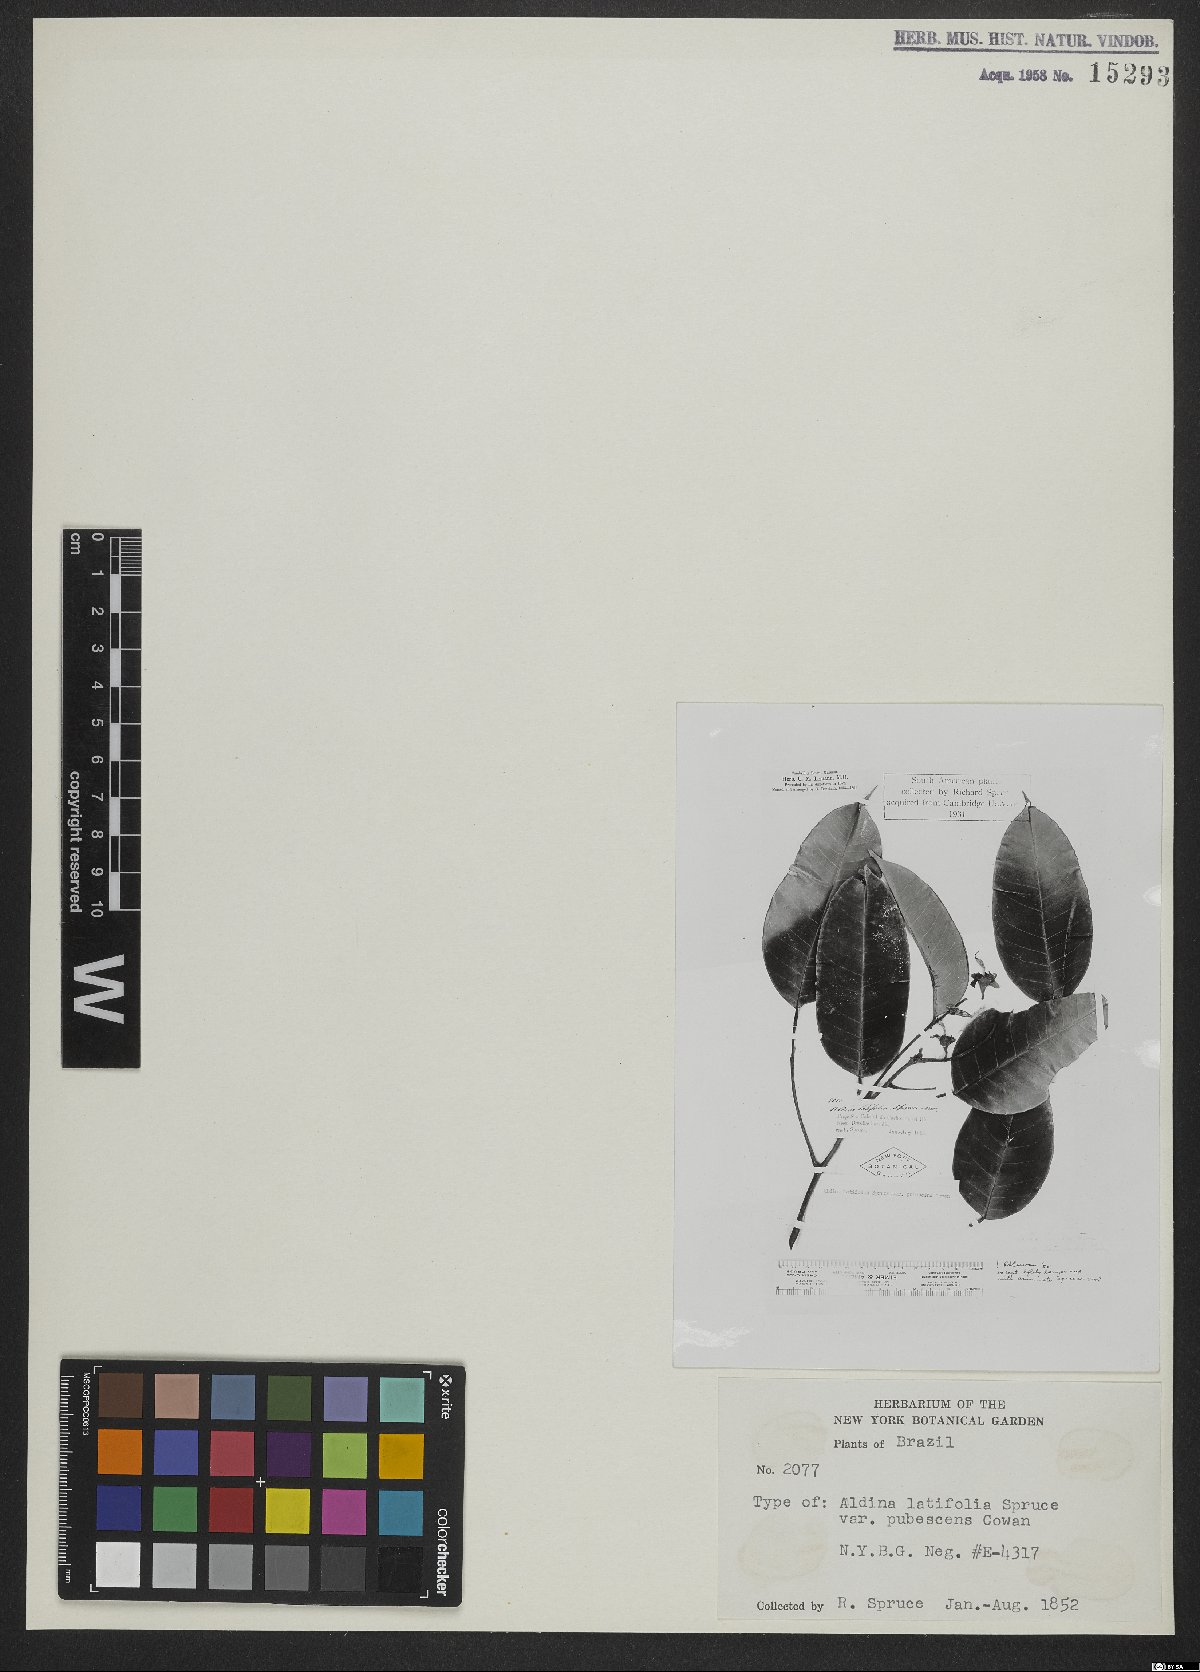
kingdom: Plantae
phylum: Tracheophyta
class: Magnoliopsida
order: Fabales
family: Fabaceae
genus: Aldina
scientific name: Aldina latifolia
